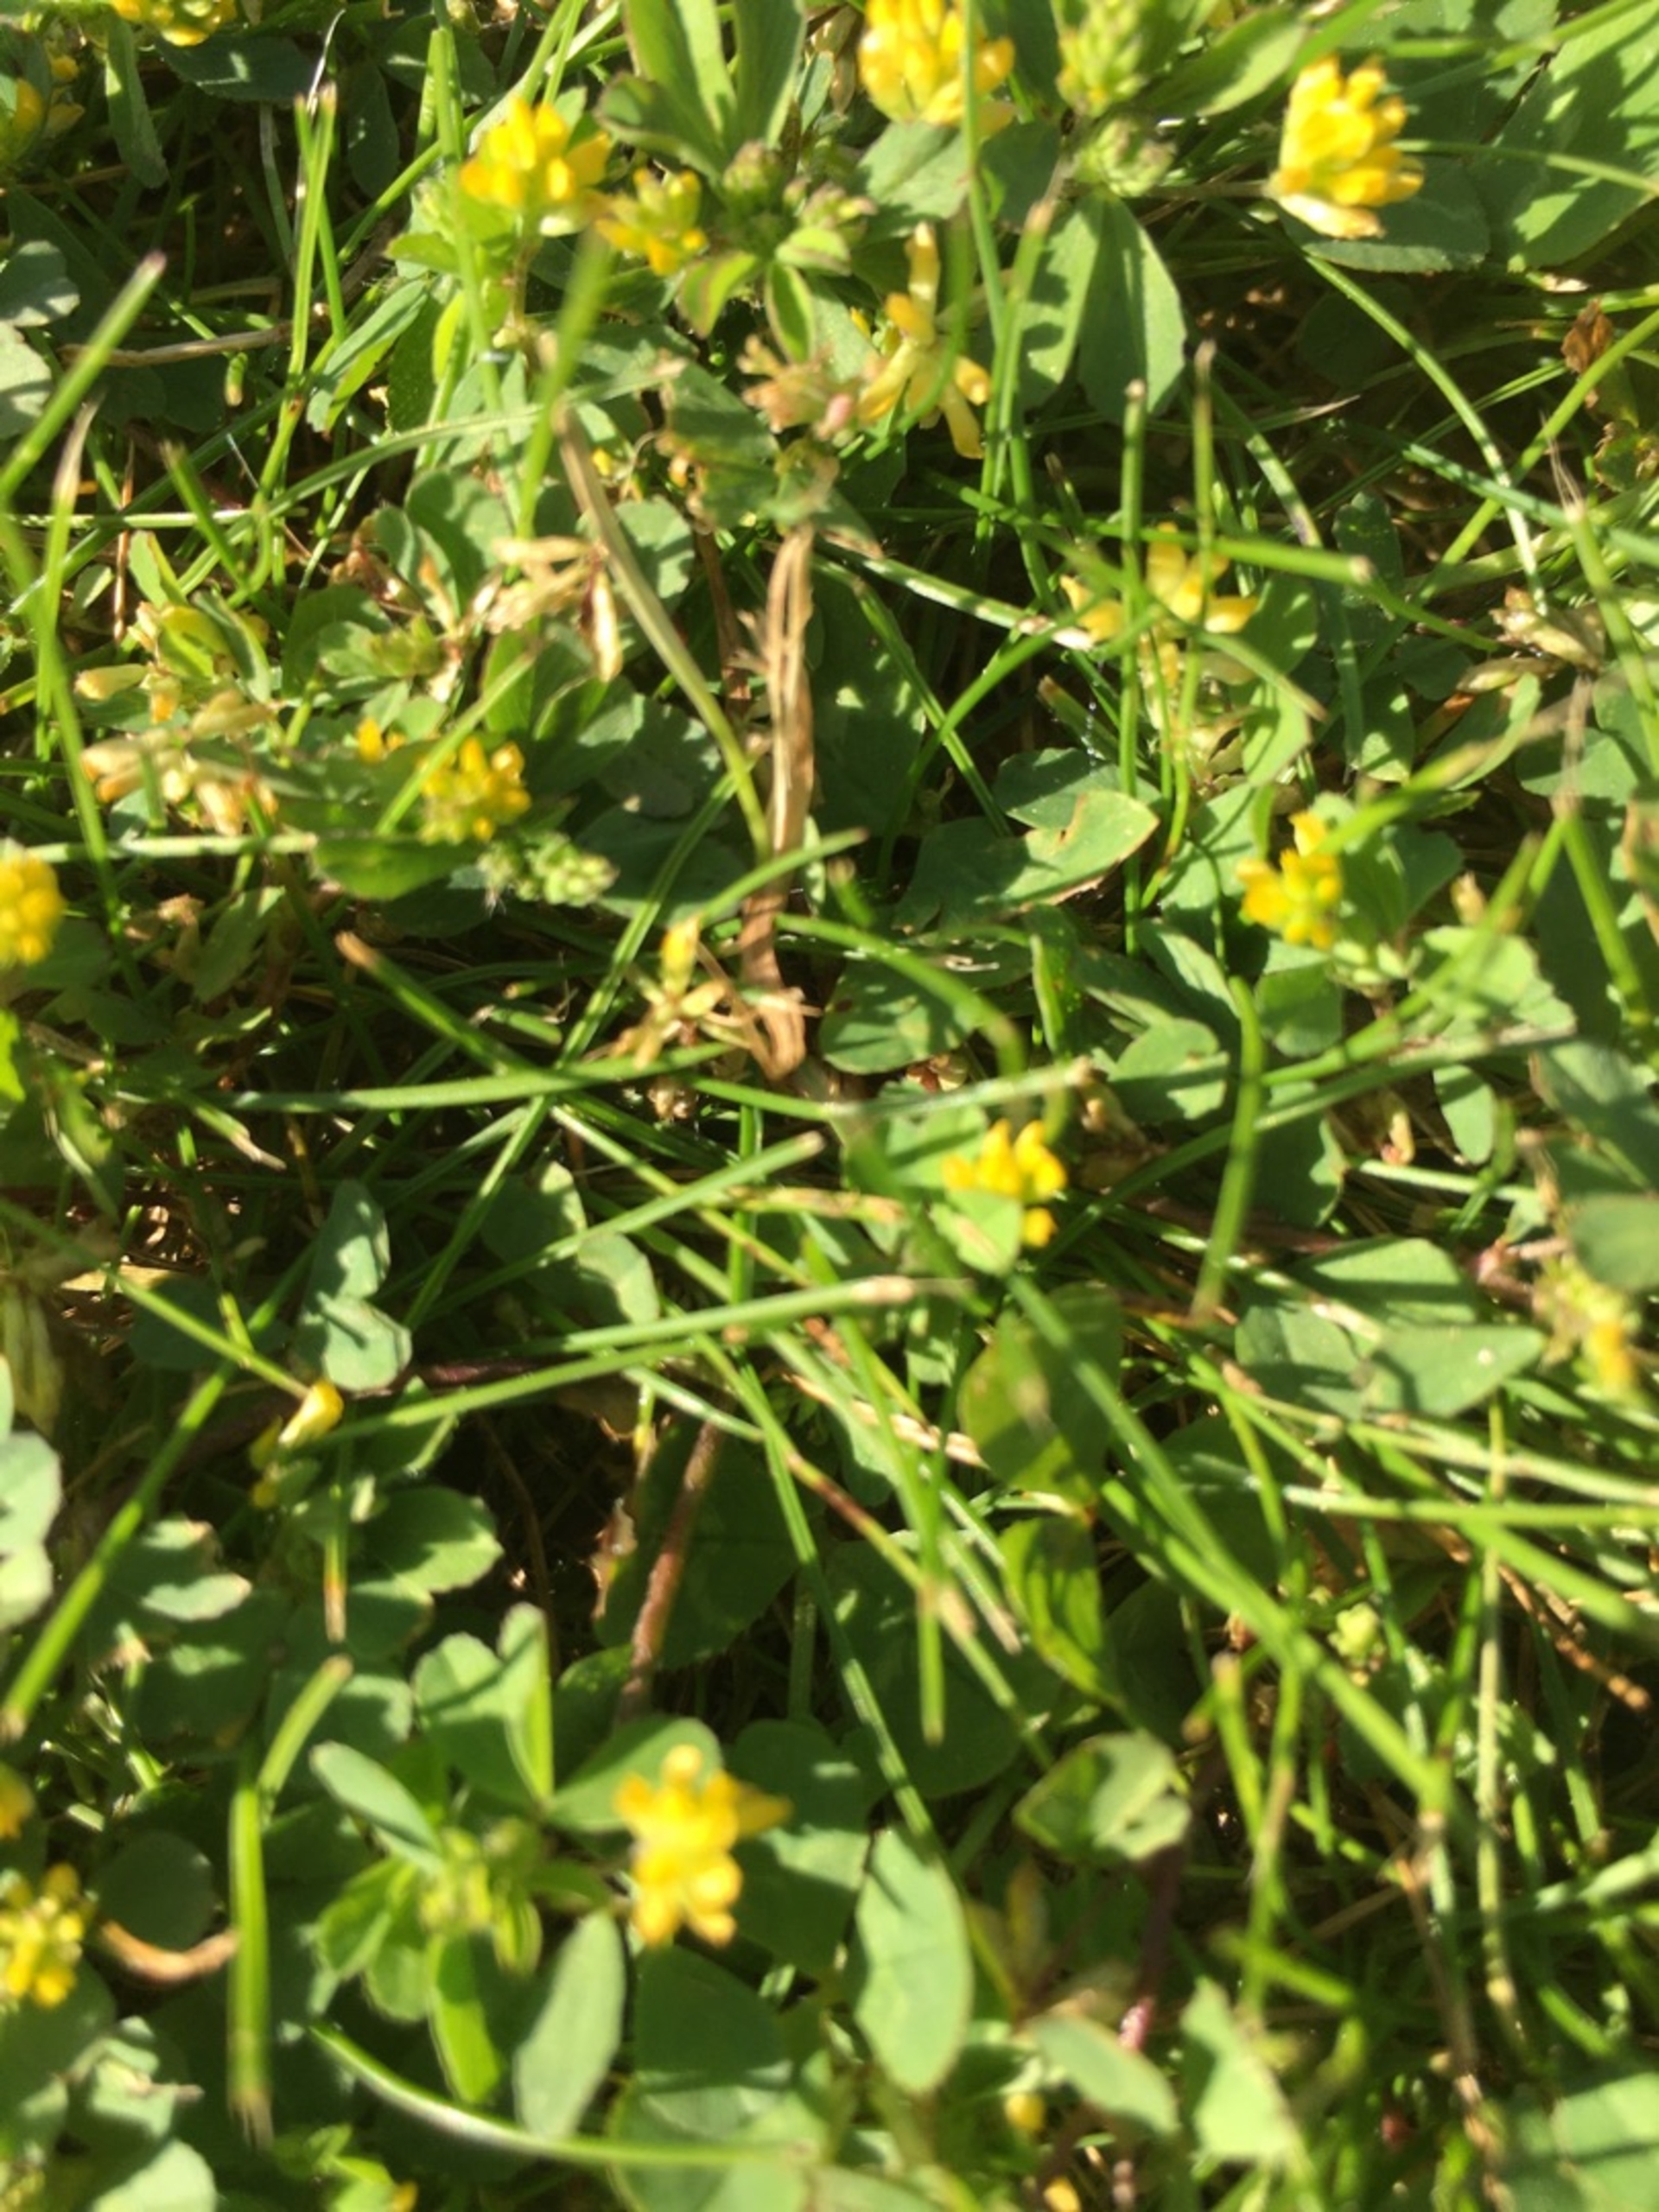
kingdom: Plantae
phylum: Tracheophyta
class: Magnoliopsida
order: Fabales
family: Fabaceae
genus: Trifolium
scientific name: Trifolium dubium
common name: Fin kløver
